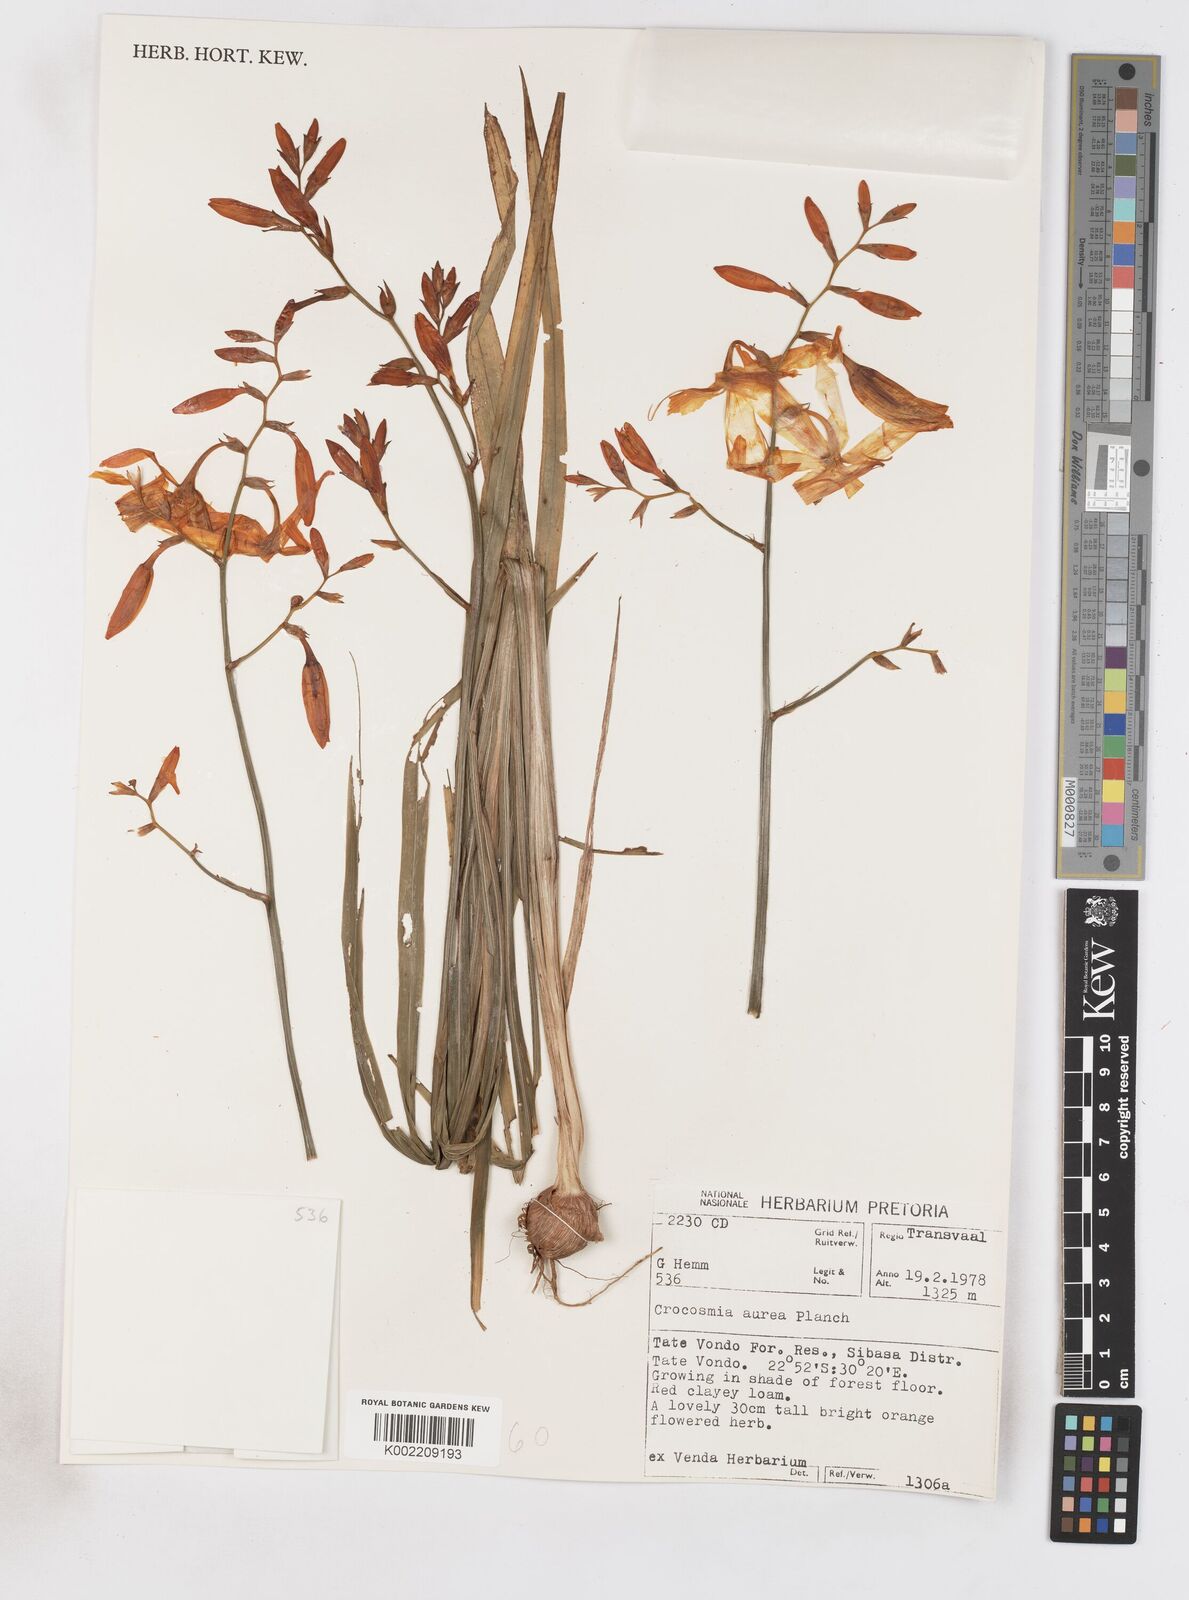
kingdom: Plantae
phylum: Tracheophyta
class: Liliopsida
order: Asparagales
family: Iridaceae
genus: Crocosmia
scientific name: Crocosmia aurea
